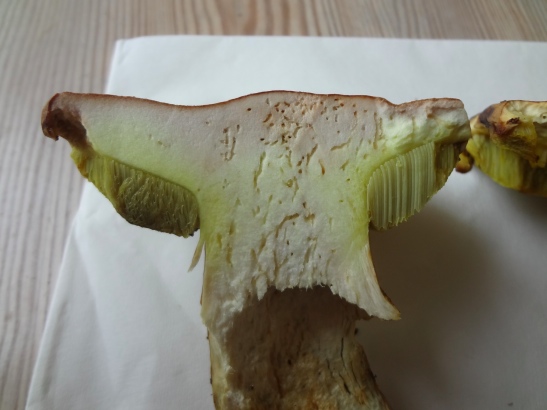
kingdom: Fungi
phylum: Basidiomycota
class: Agaricomycetes
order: Boletales
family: Boletaceae
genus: Hemileccinum
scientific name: Hemileccinum impolitum
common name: bleg rørhat
